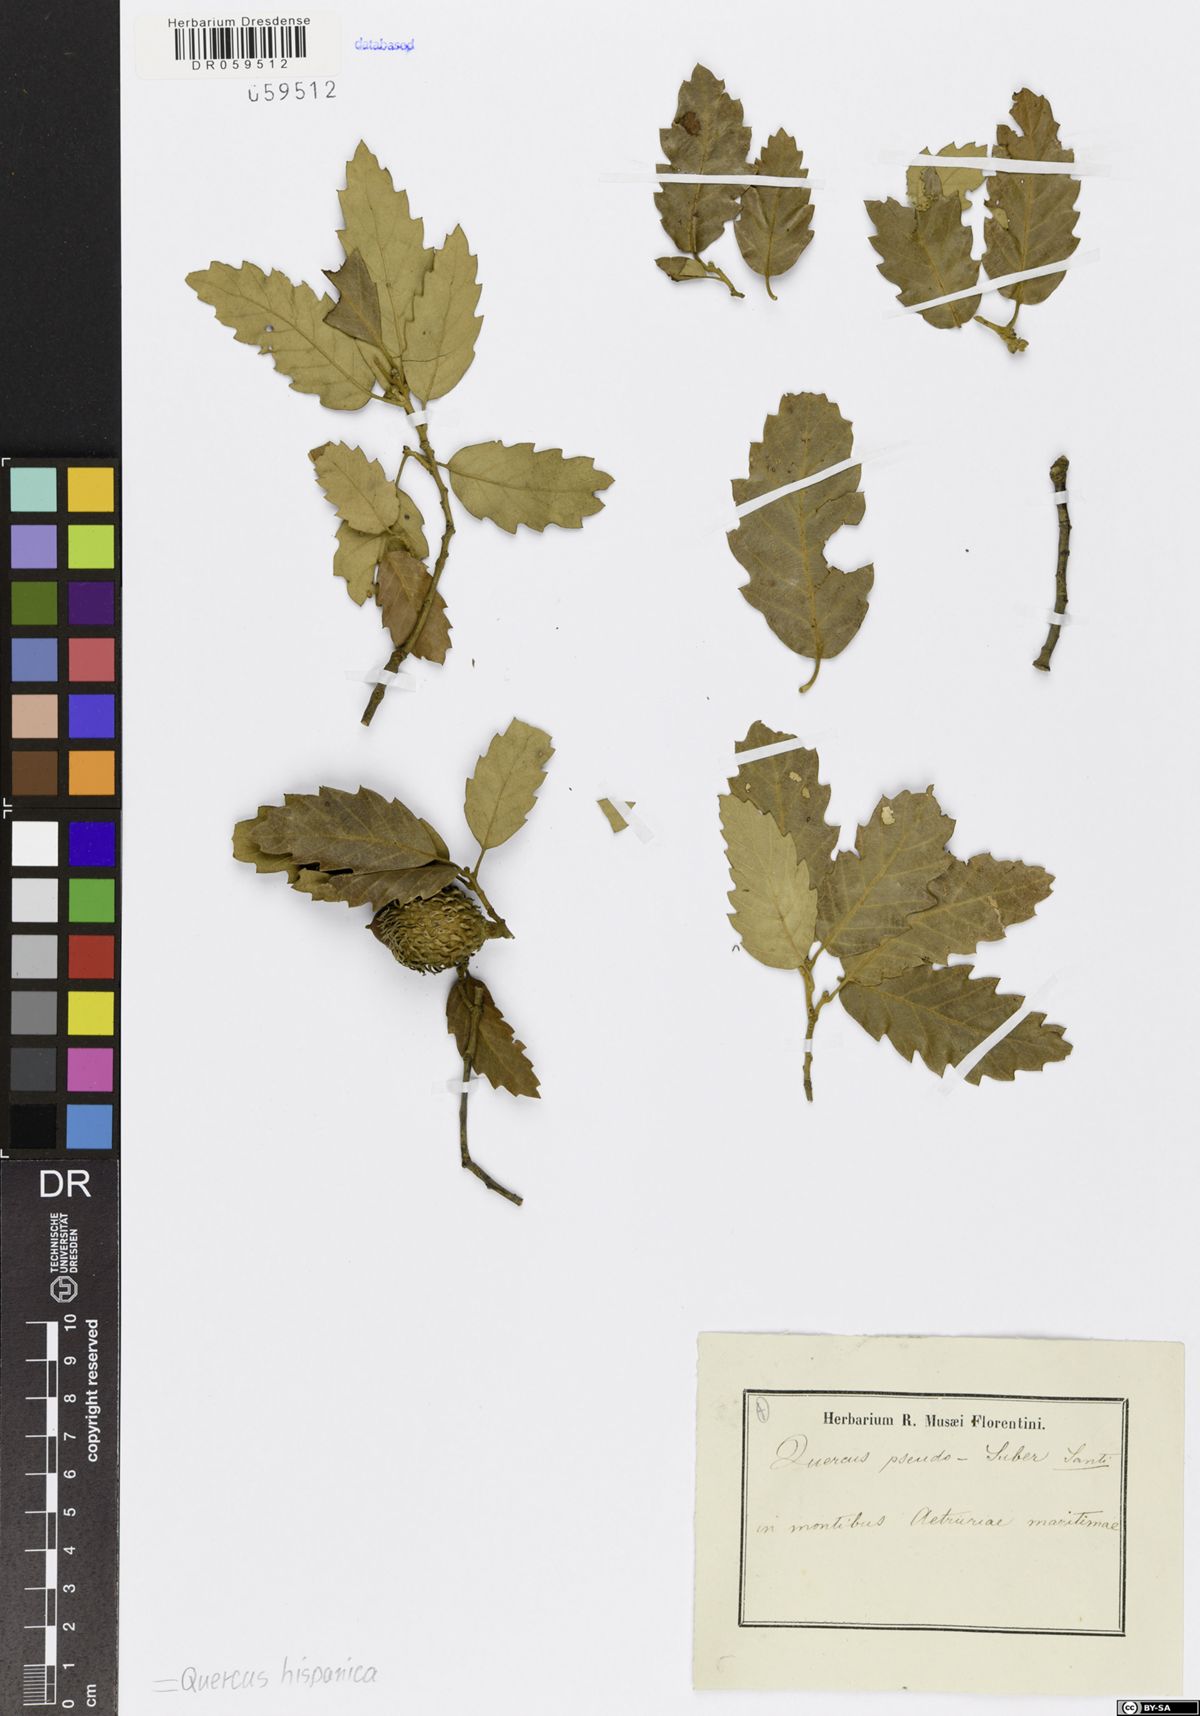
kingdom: Plantae
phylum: Tracheophyta
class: Magnoliopsida
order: Fagales
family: Fagaceae
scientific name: Fagaceae
